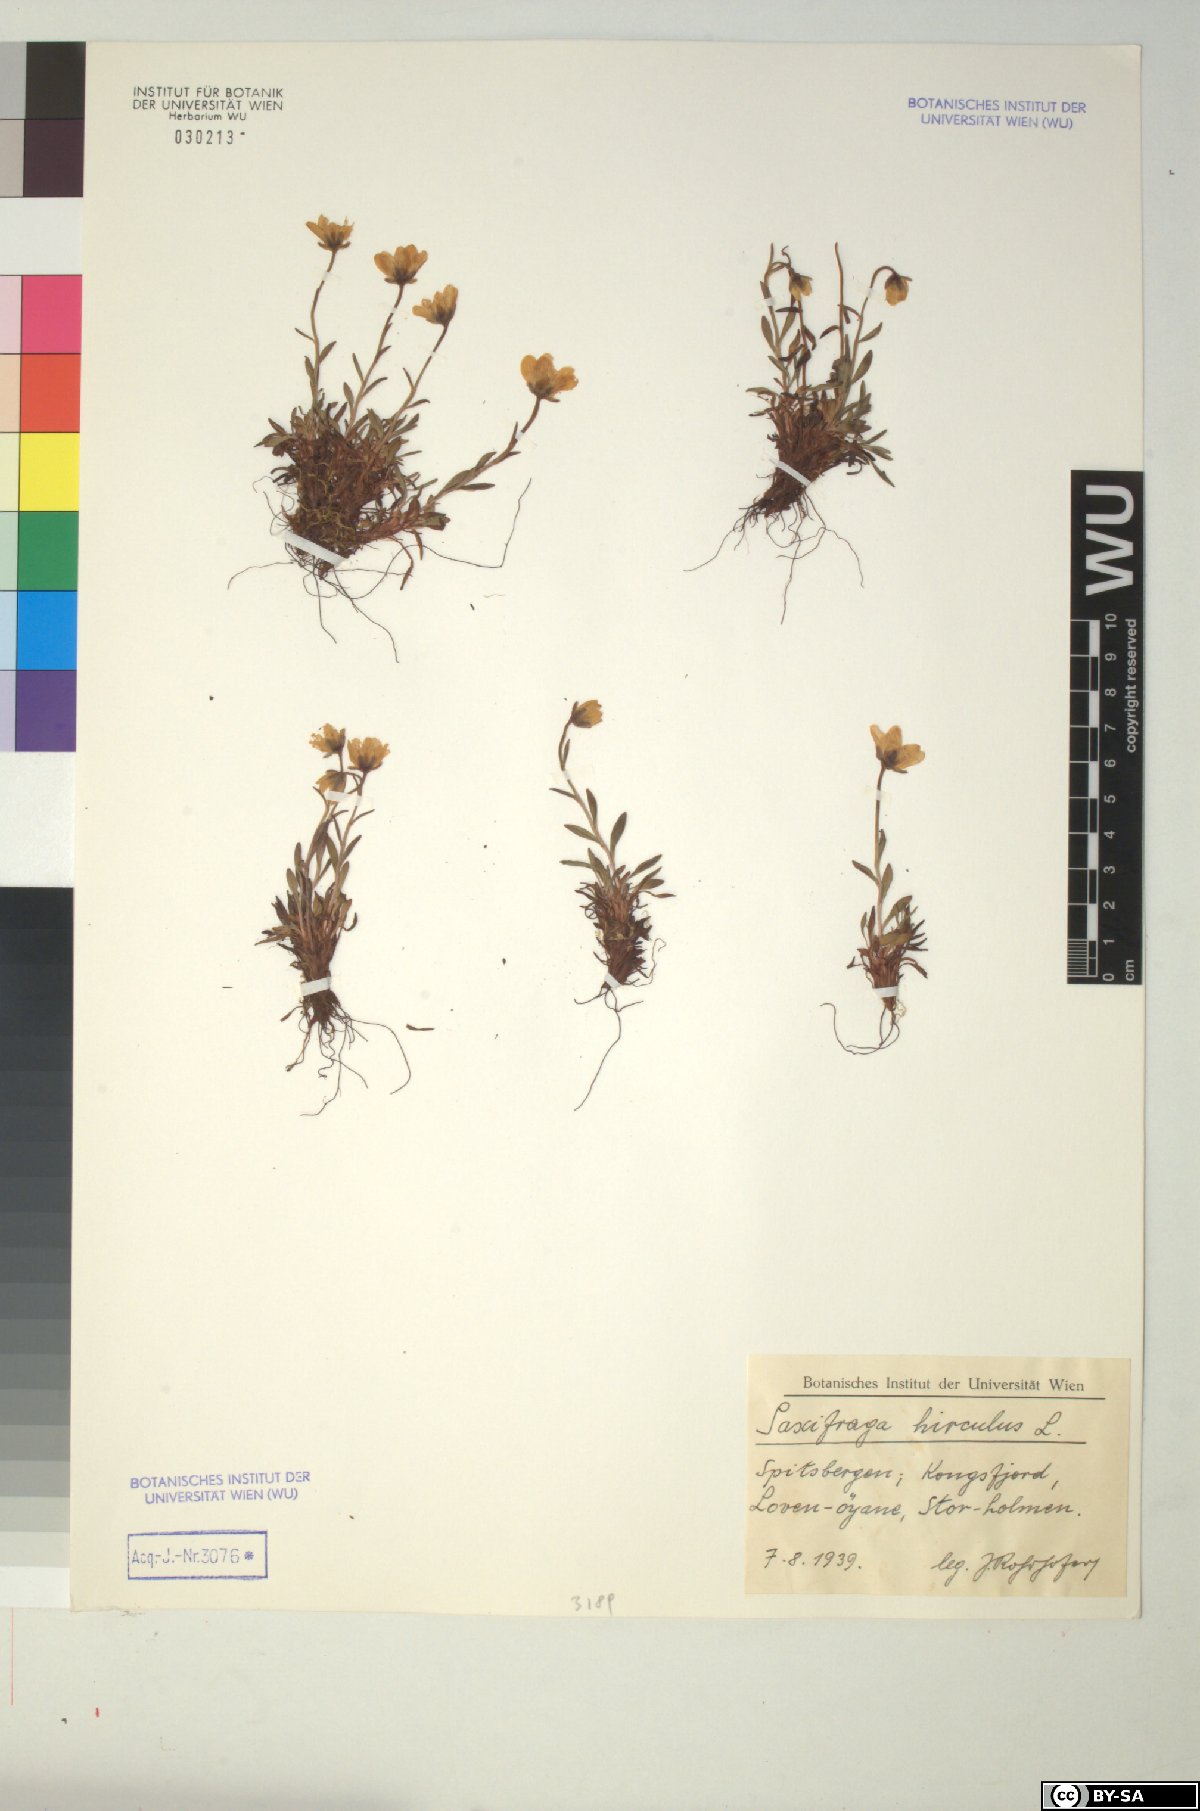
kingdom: Plantae
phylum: Tracheophyta
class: Magnoliopsida
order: Saxifragales
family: Saxifragaceae
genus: Saxifraga
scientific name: Saxifraga hirculus
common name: Yellow marsh saxifrage
